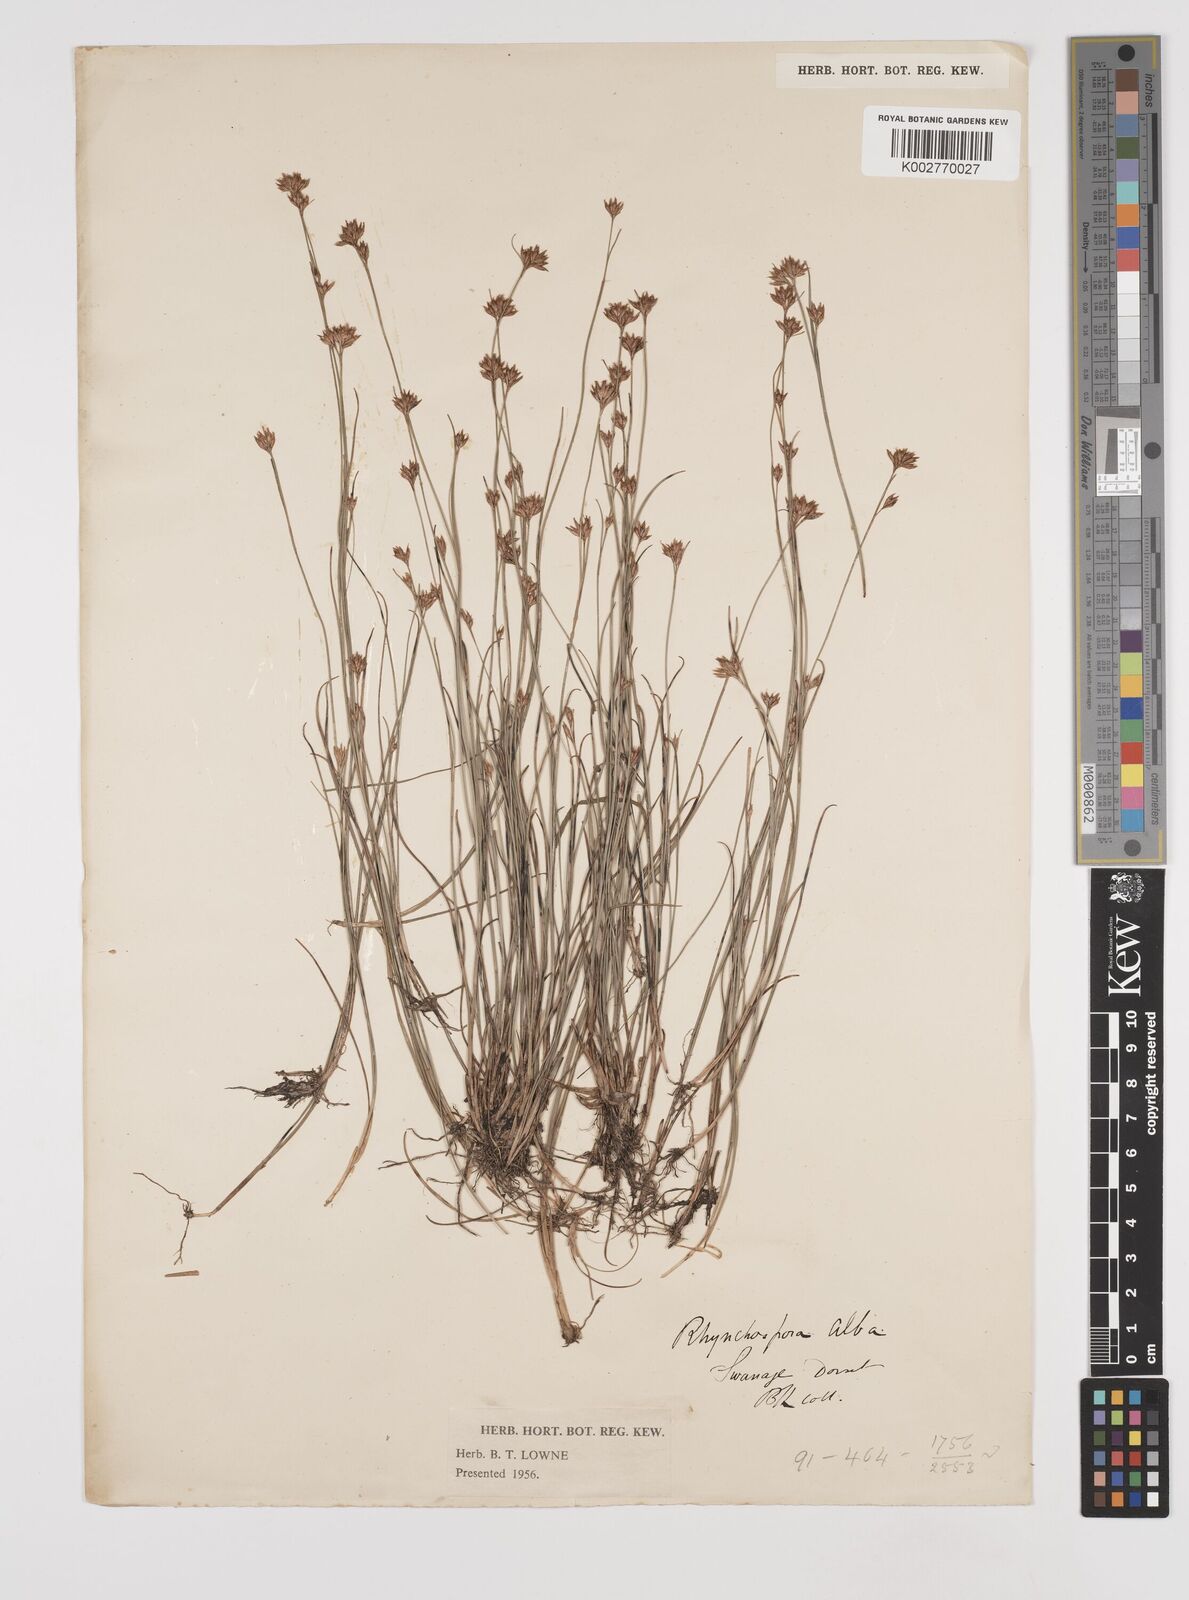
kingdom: Plantae
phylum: Tracheophyta
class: Liliopsida
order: Poales
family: Cyperaceae
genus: Rhynchospora
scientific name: Rhynchospora alba
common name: White beak-sedge
